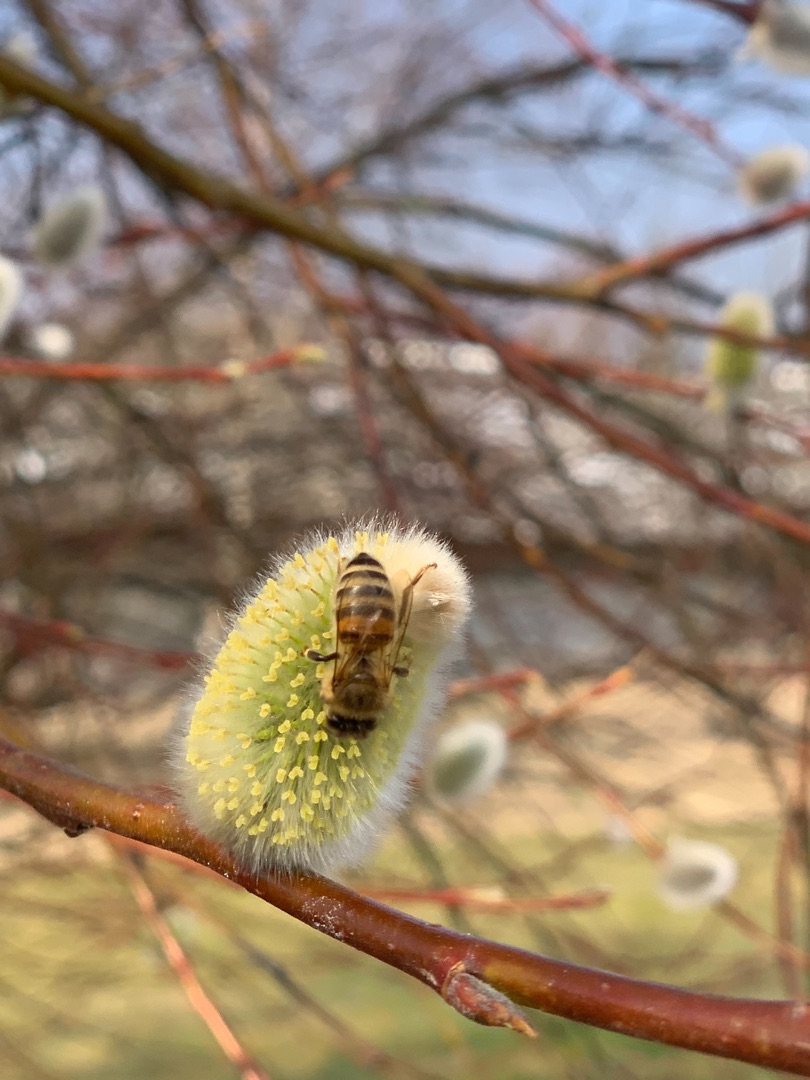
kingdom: Animalia
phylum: Arthropoda
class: Insecta
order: Hymenoptera
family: Apidae
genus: Apis
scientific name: Apis mellifera
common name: Honningbi
